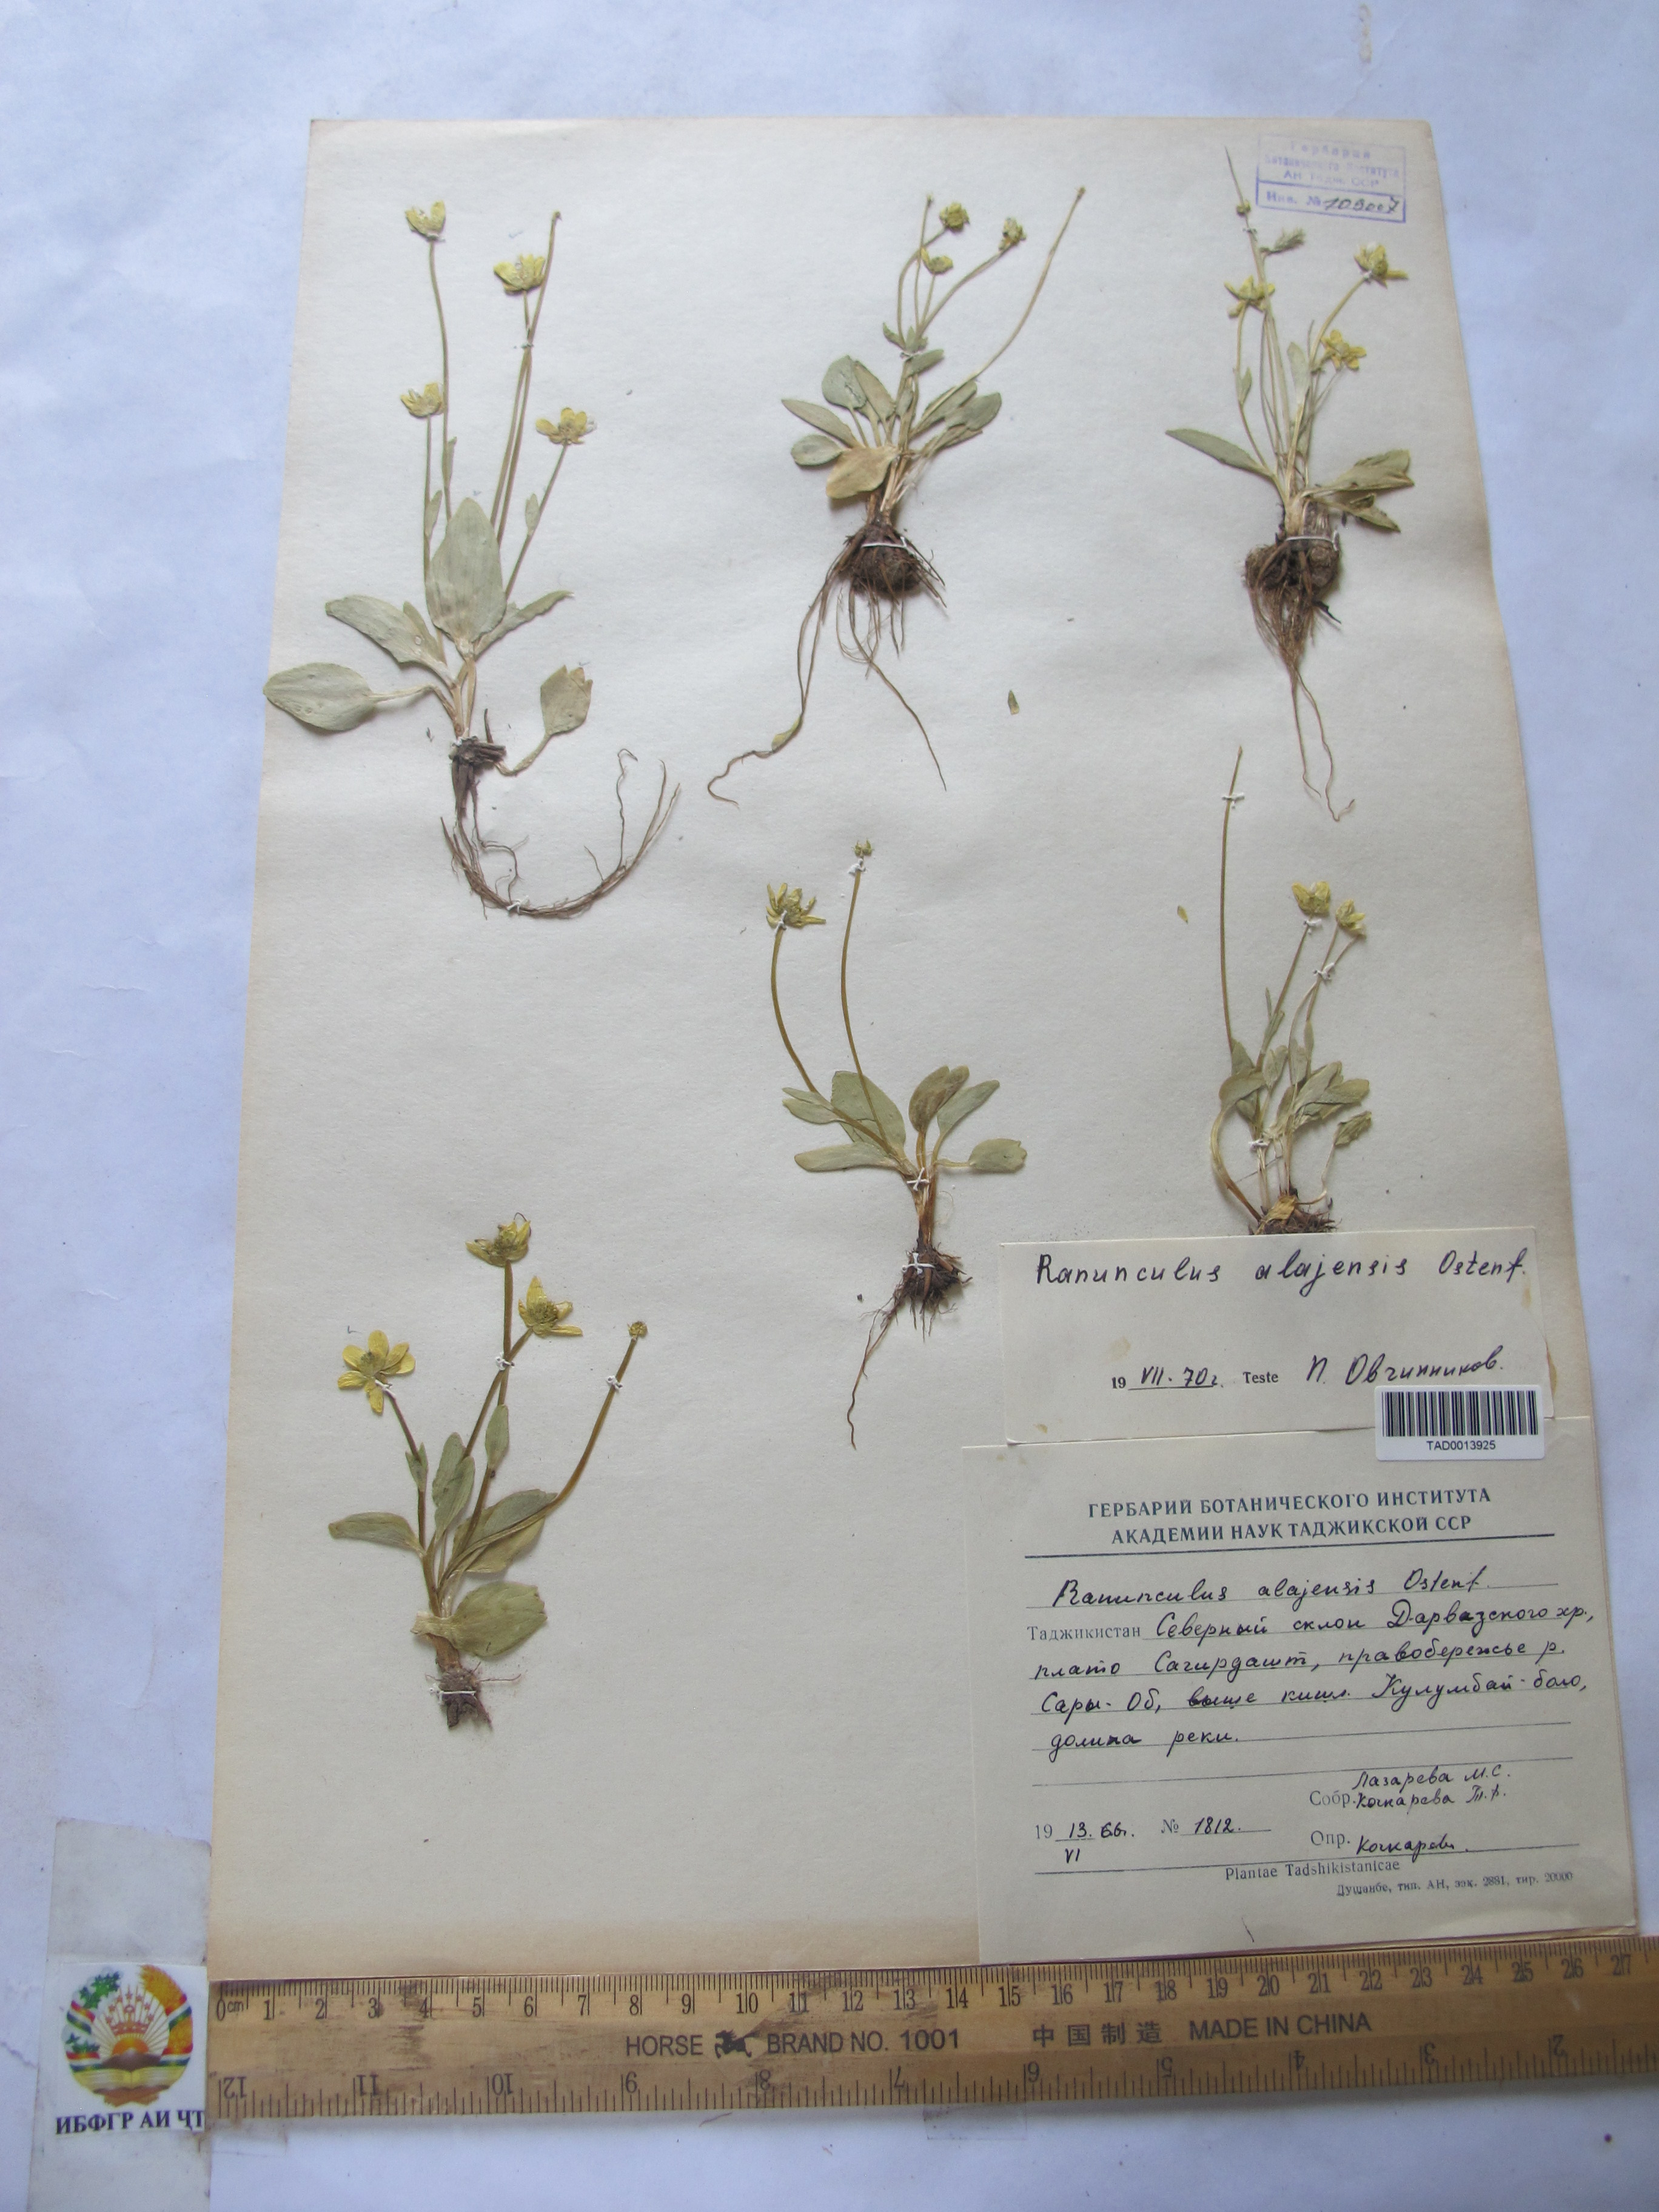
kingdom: Plantae
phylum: Tracheophyta
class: Magnoliopsida
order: Ranunculales
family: Ranunculaceae
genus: Ranunculus
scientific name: Ranunculus alaiensis
